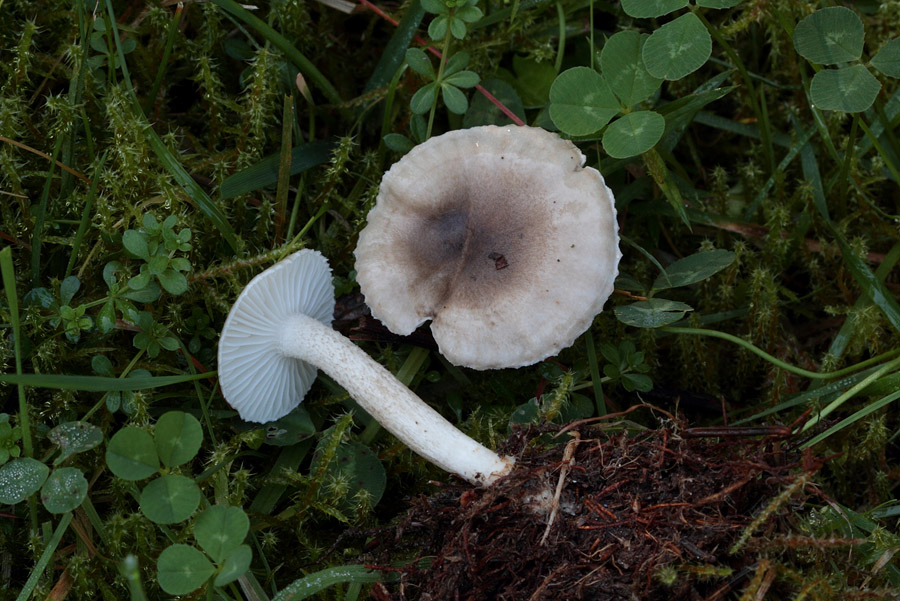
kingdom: Fungi
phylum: Basidiomycota
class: Agaricomycetes
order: Agaricales
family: Hygrophoraceae
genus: Hygrophorus
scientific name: Hygrophorus pustulatus
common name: mørkprikket sneglehat
